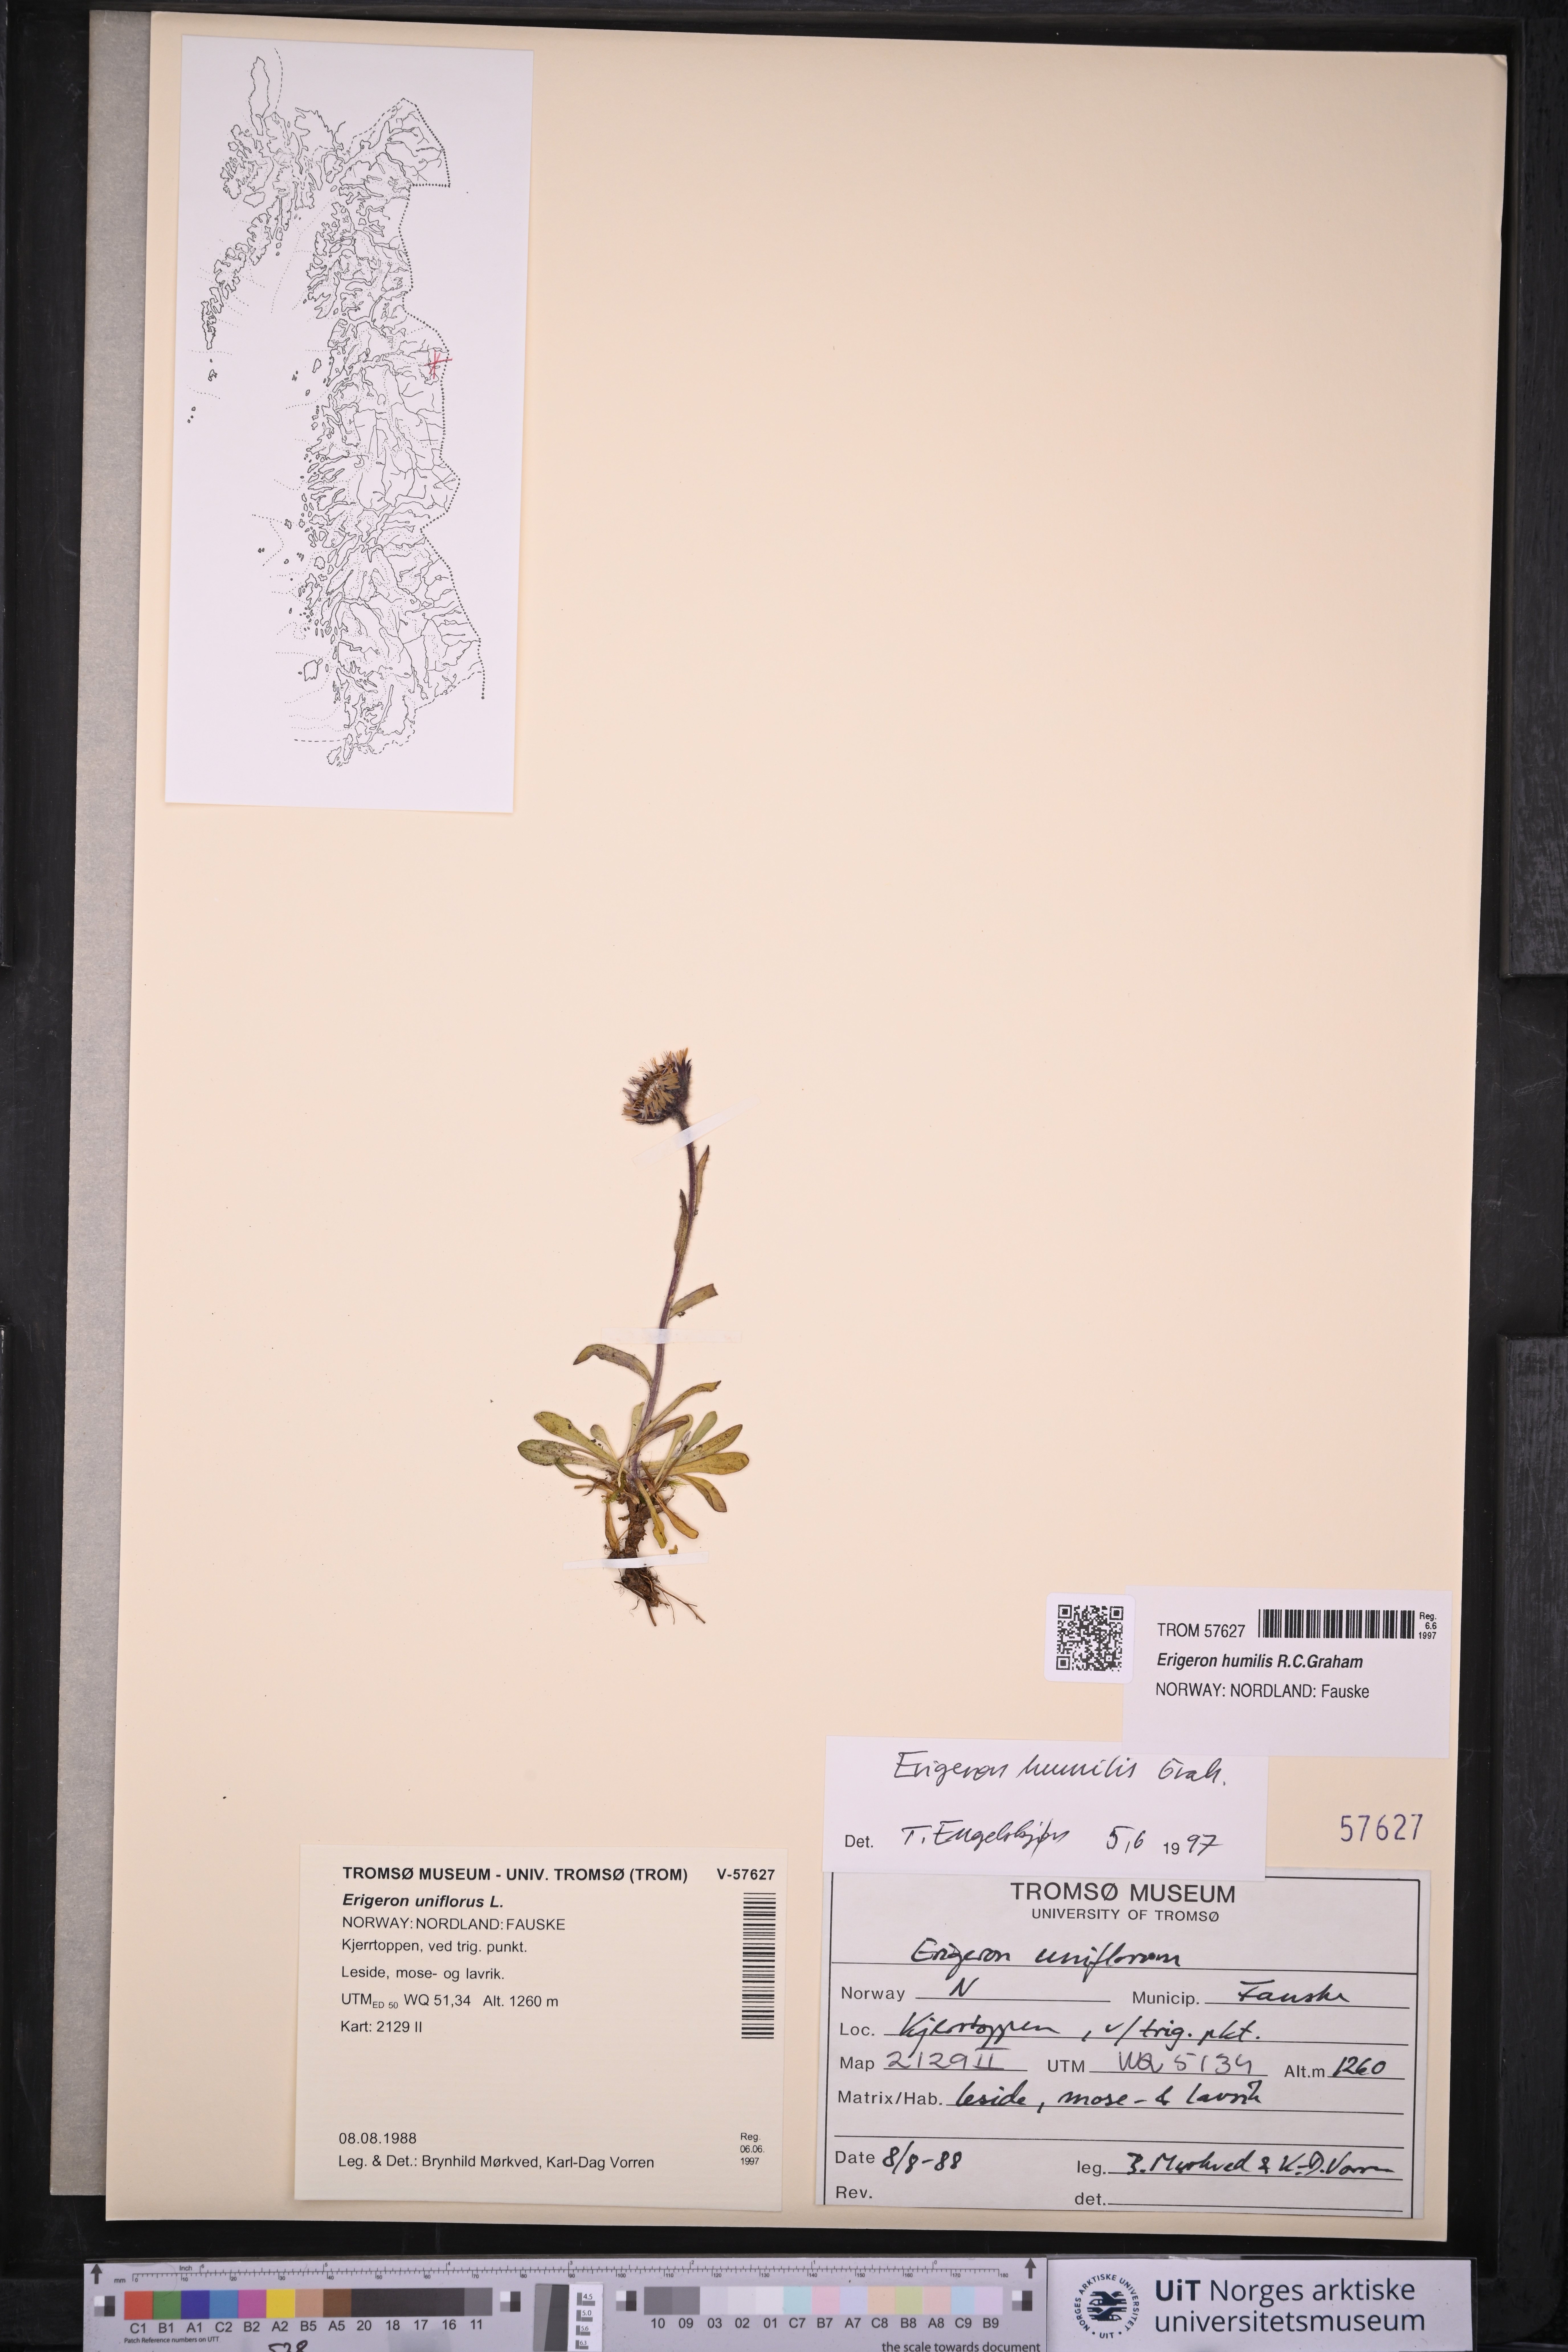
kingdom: Plantae
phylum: Tracheophyta
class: Magnoliopsida
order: Asterales
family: Asteraceae
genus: Erigeron
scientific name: Erigeron humilis
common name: Arctic-alpine fleabane
